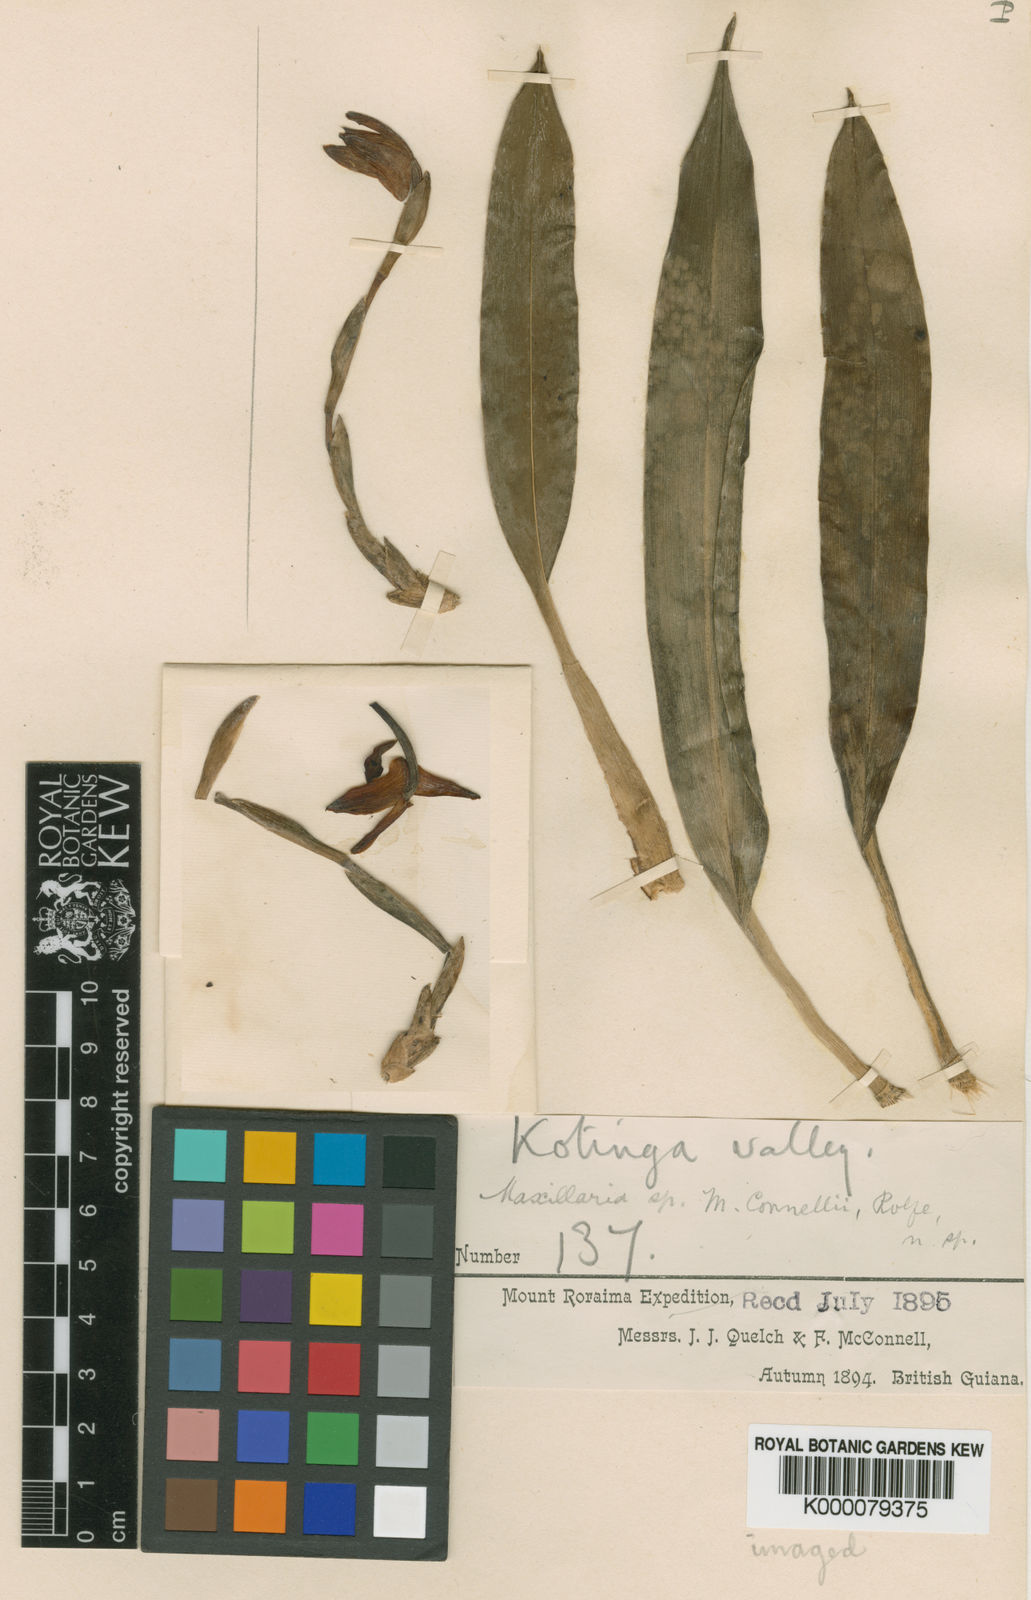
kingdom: Plantae
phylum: Tracheophyta
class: Liliopsida
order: Asparagales
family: Orchidaceae
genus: Maxillaria
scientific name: Maxillaria connellii
